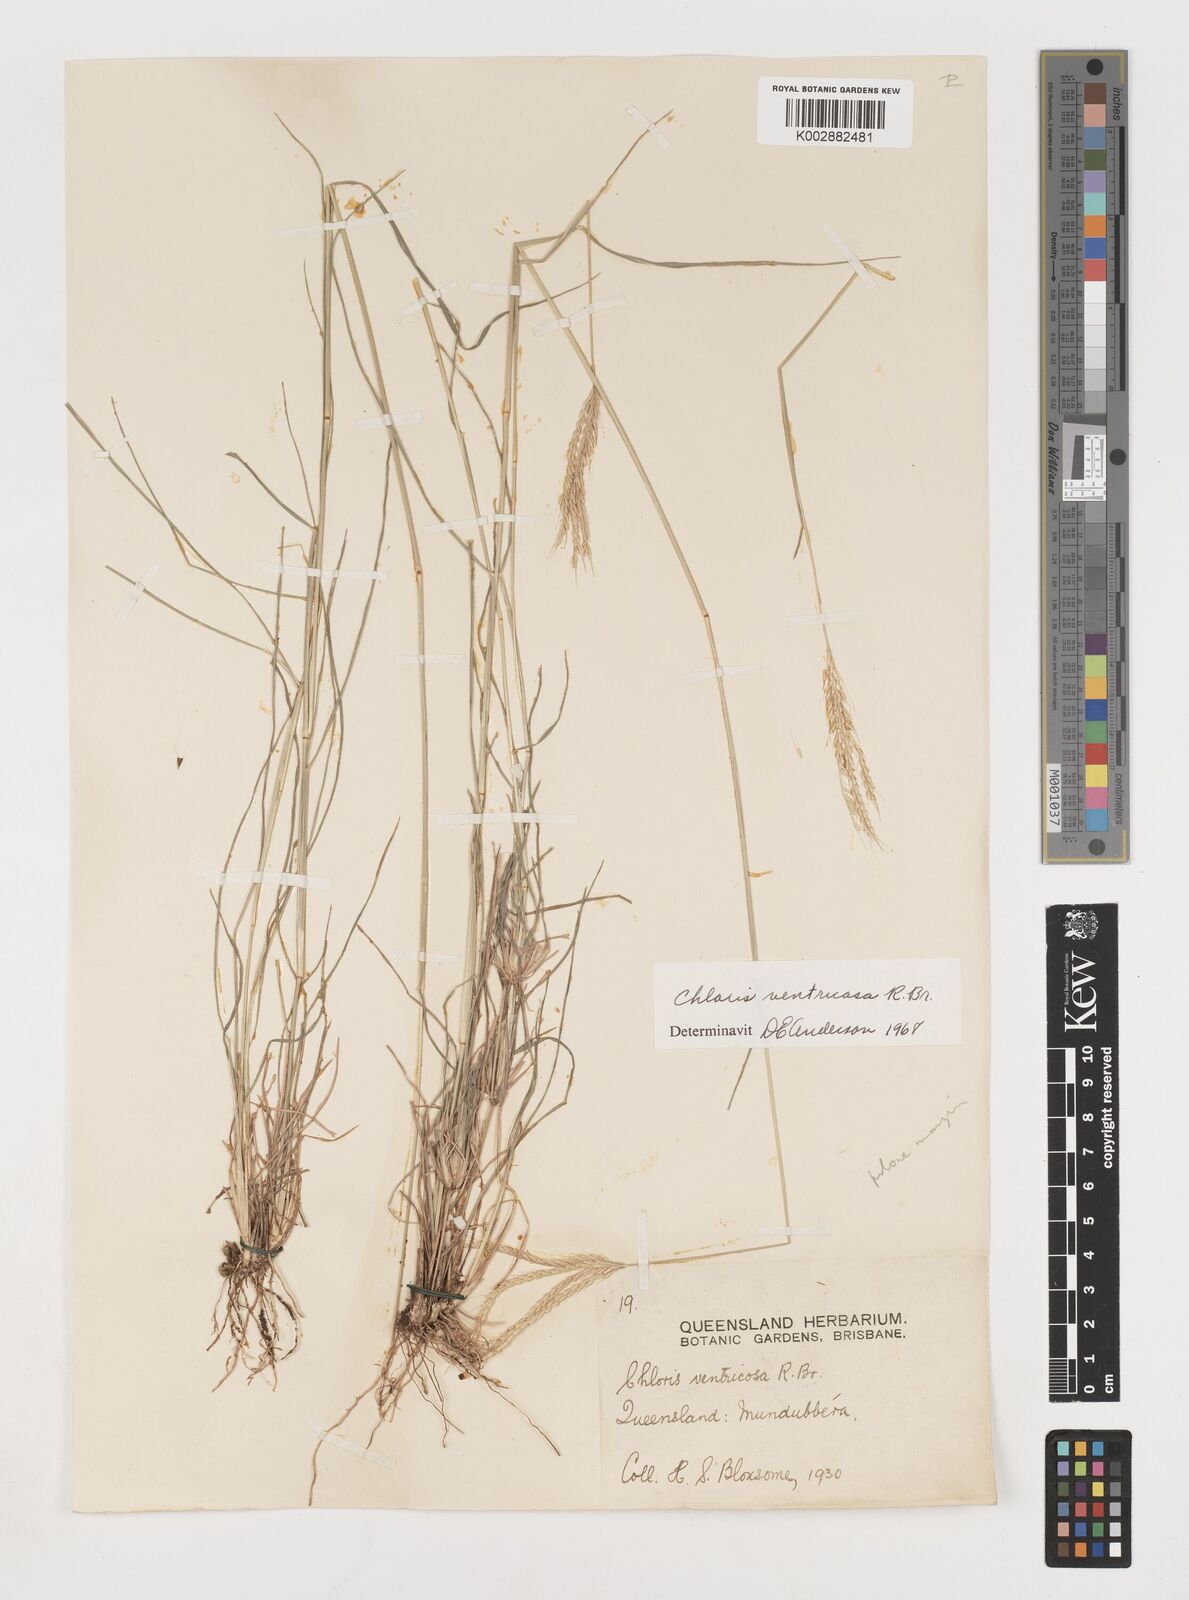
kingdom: Plantae
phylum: Tracheophyta
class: Liliopsida
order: Poales
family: Poaceae
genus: Chloris
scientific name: Chloris ventricosa
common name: Australian windmill grass
